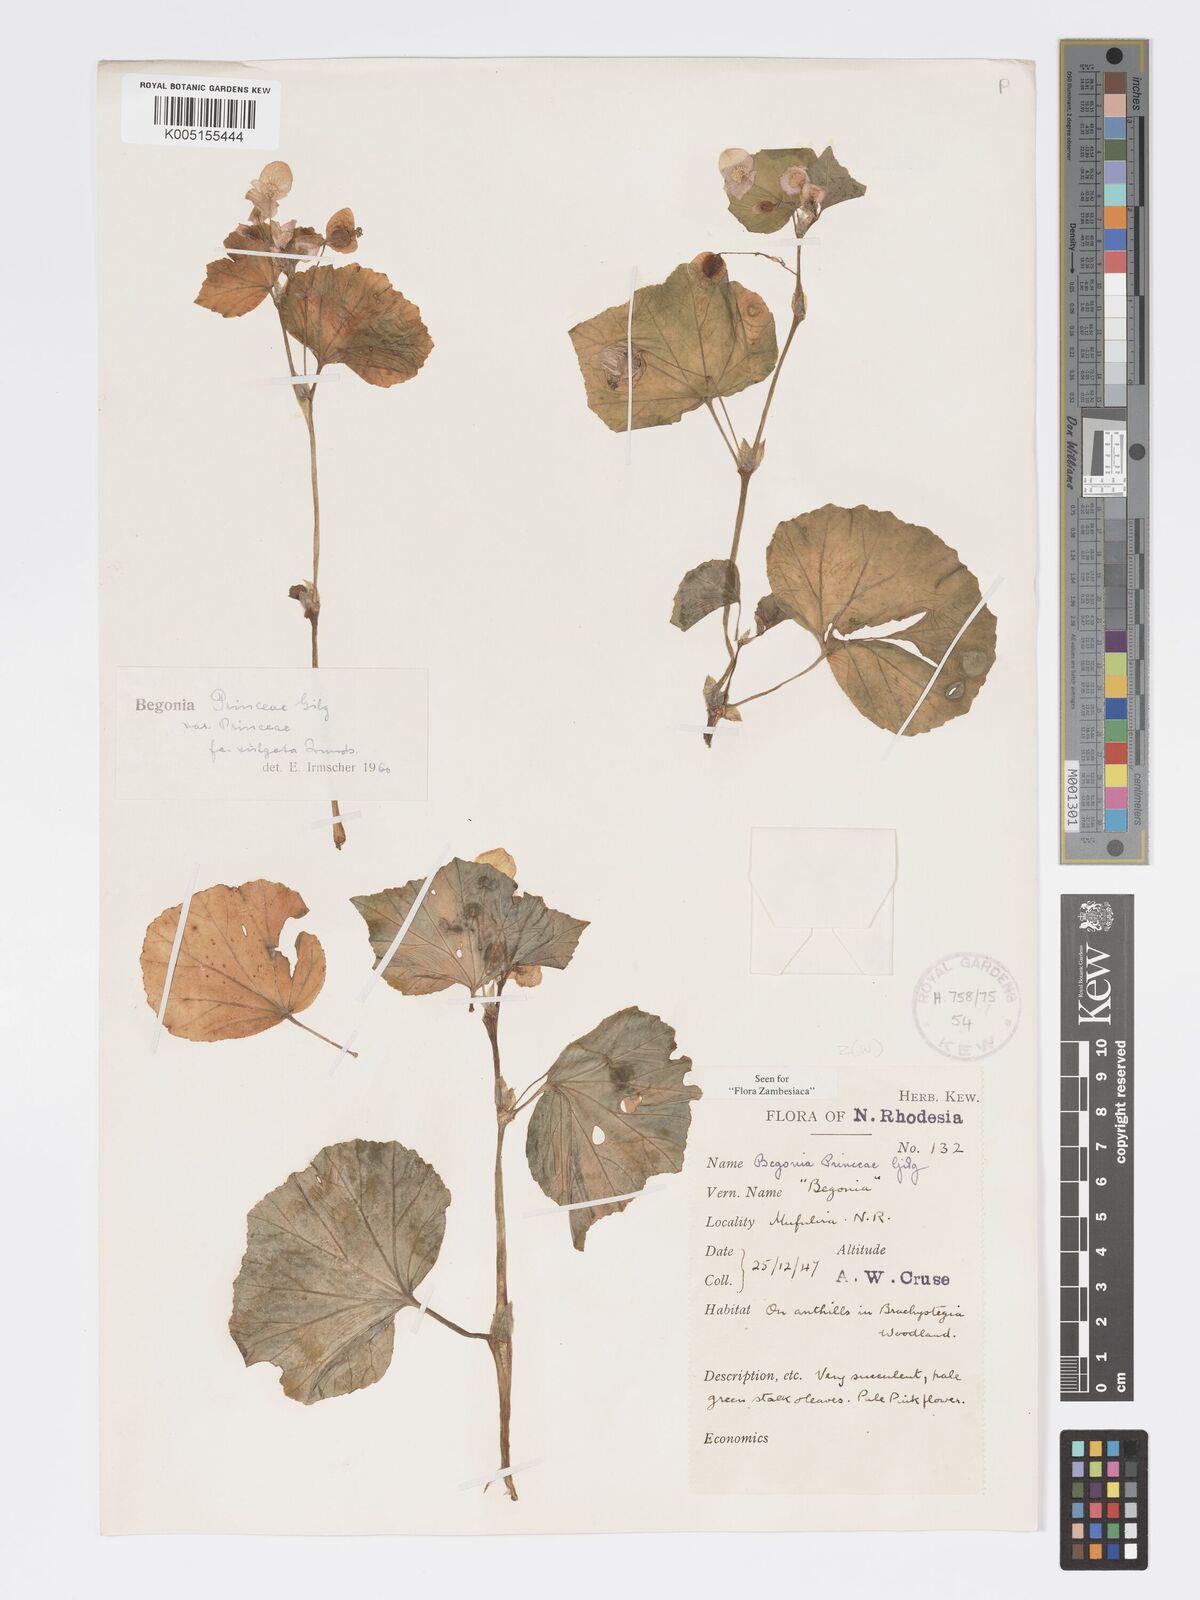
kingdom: Plantae
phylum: Tracheophyta
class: Magnoliopsida
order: Cucurbitales
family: Begoniaceae
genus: Begonia
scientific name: Begonia princeae
